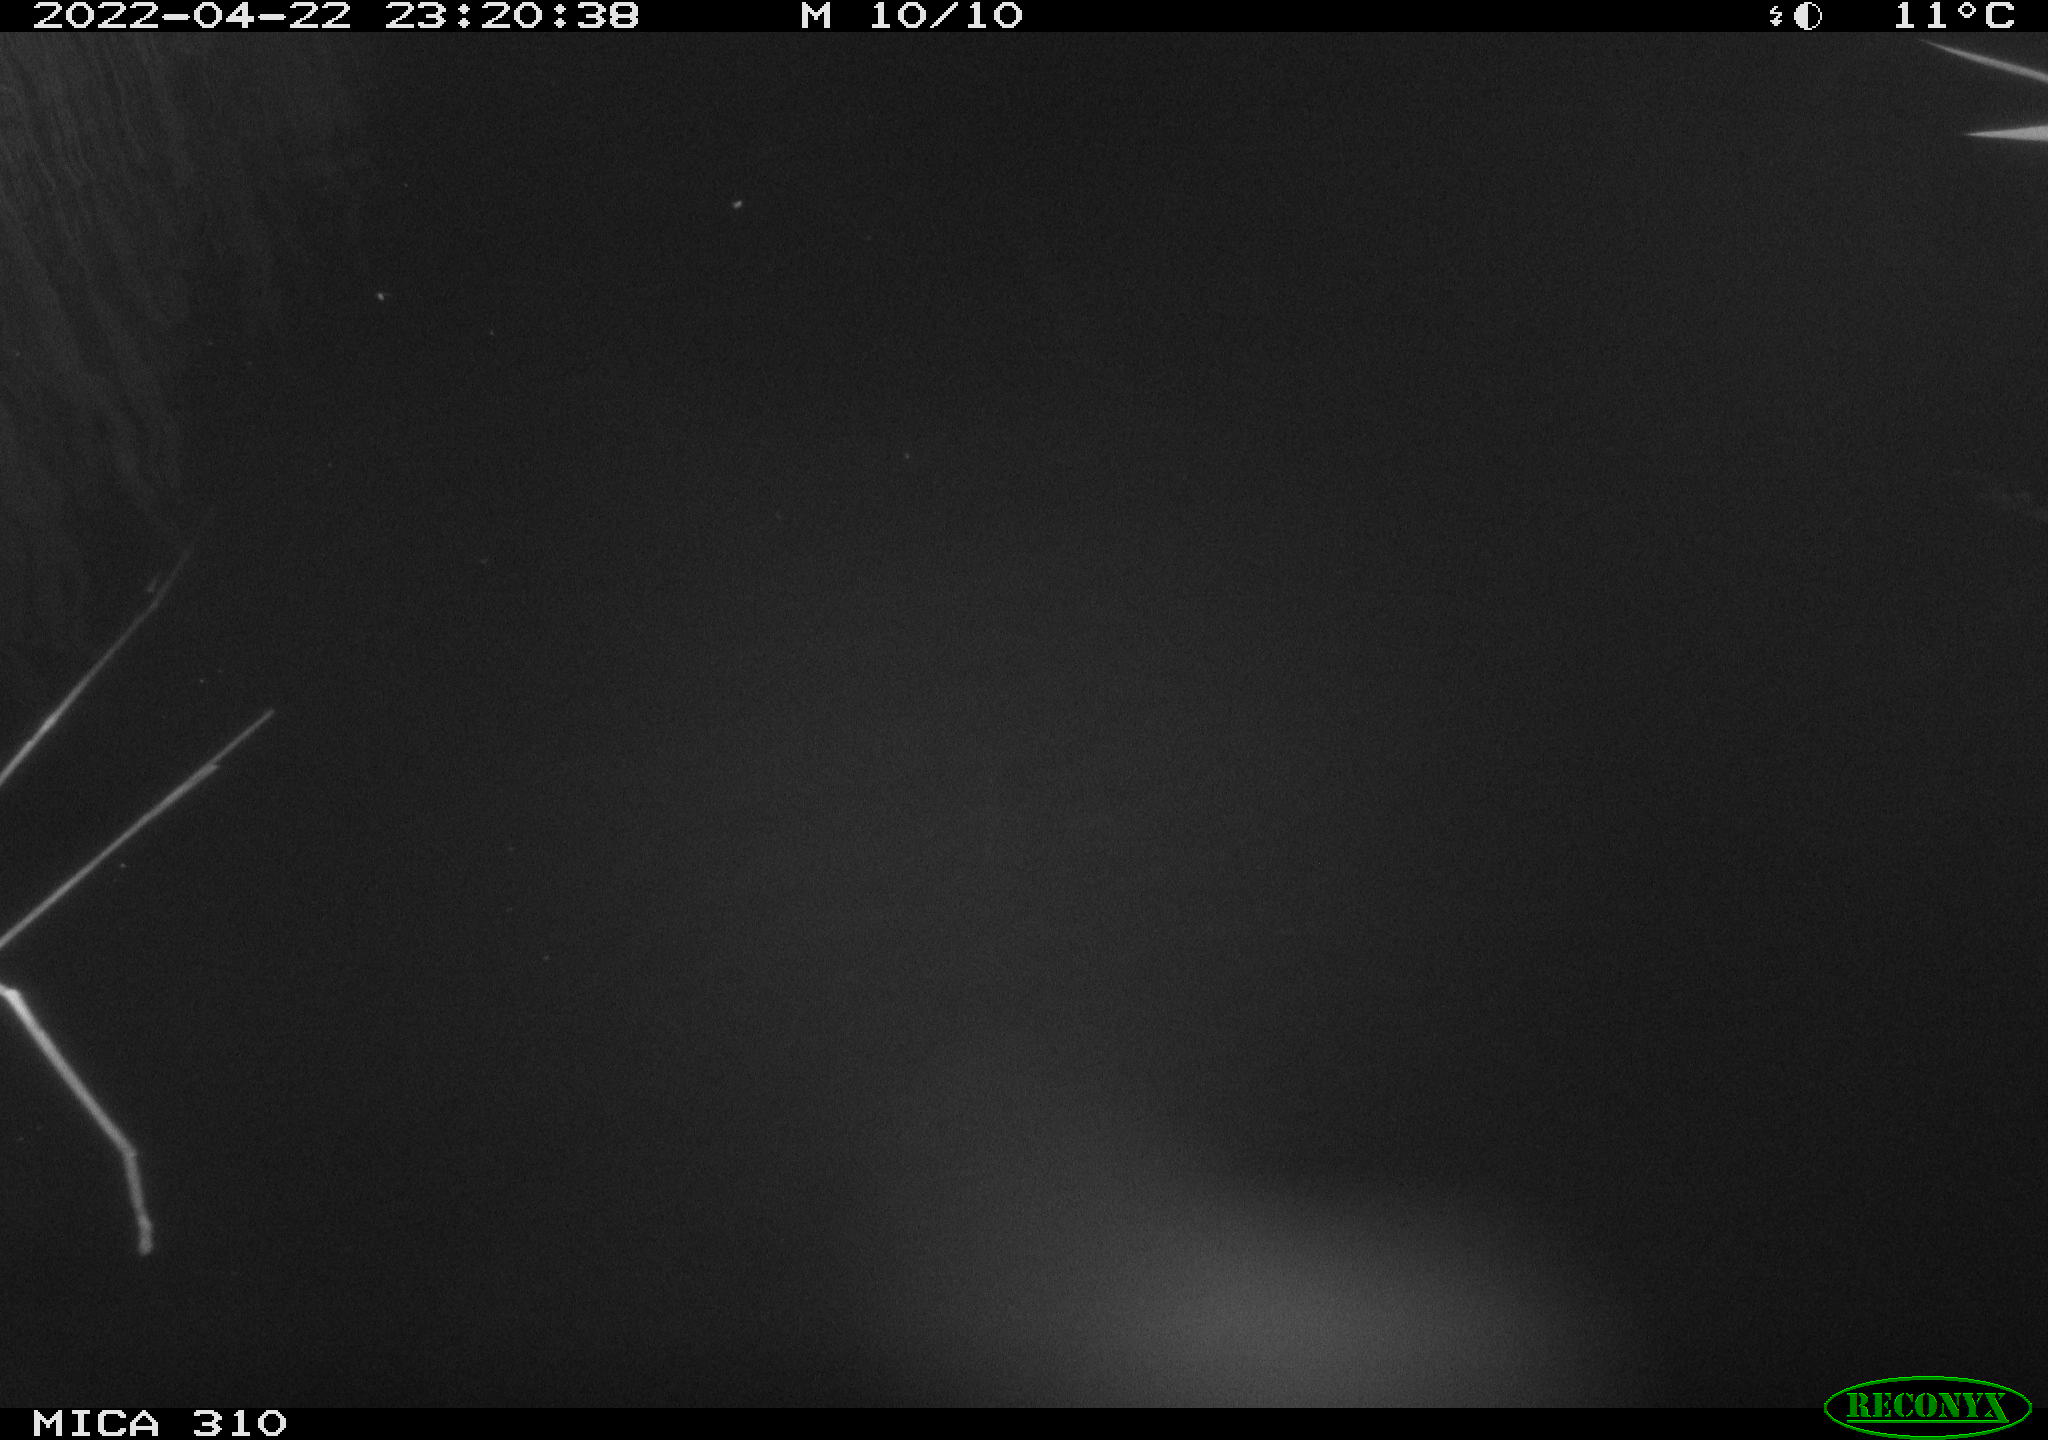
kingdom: Animalia
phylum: Chordata
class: Aves
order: Anseriformes
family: Anatidae
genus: Anas
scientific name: Anas platyrhynchos
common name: Mallard
